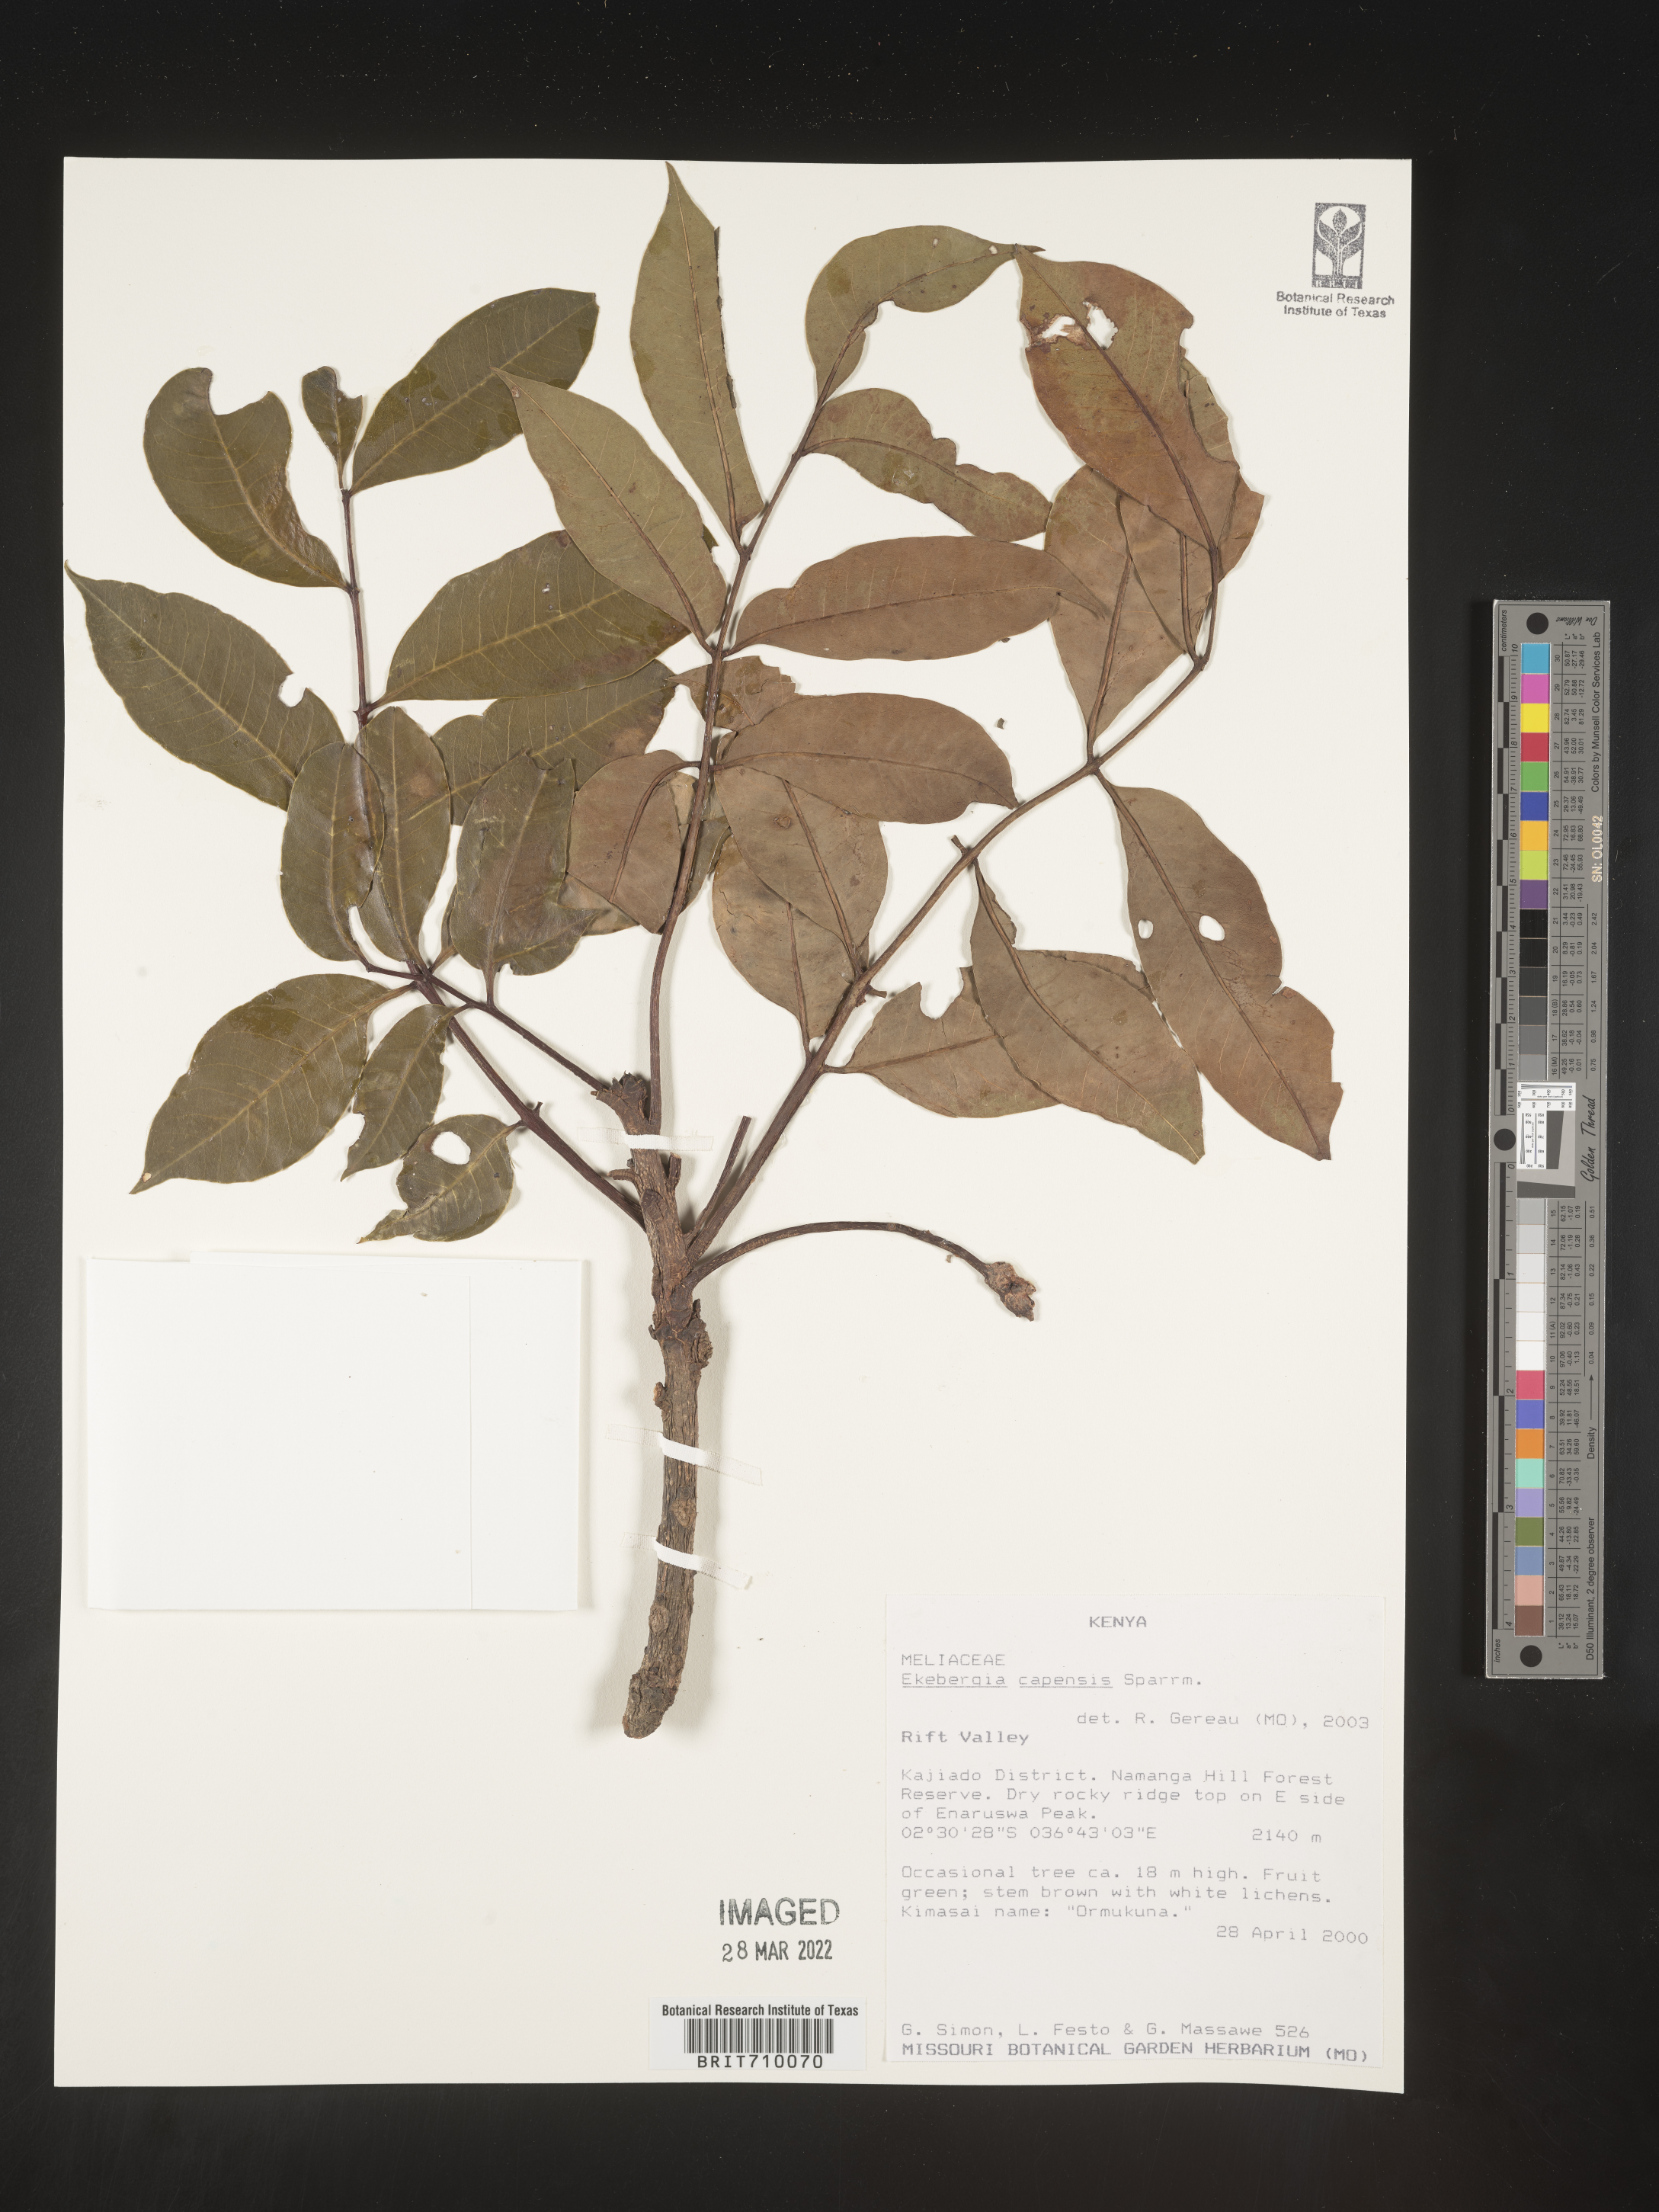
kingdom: Plantae
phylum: Tracheophyta
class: Magnoliopsida
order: Sapindales
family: Meliaceae
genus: Ekebergia
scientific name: Ekebergia
